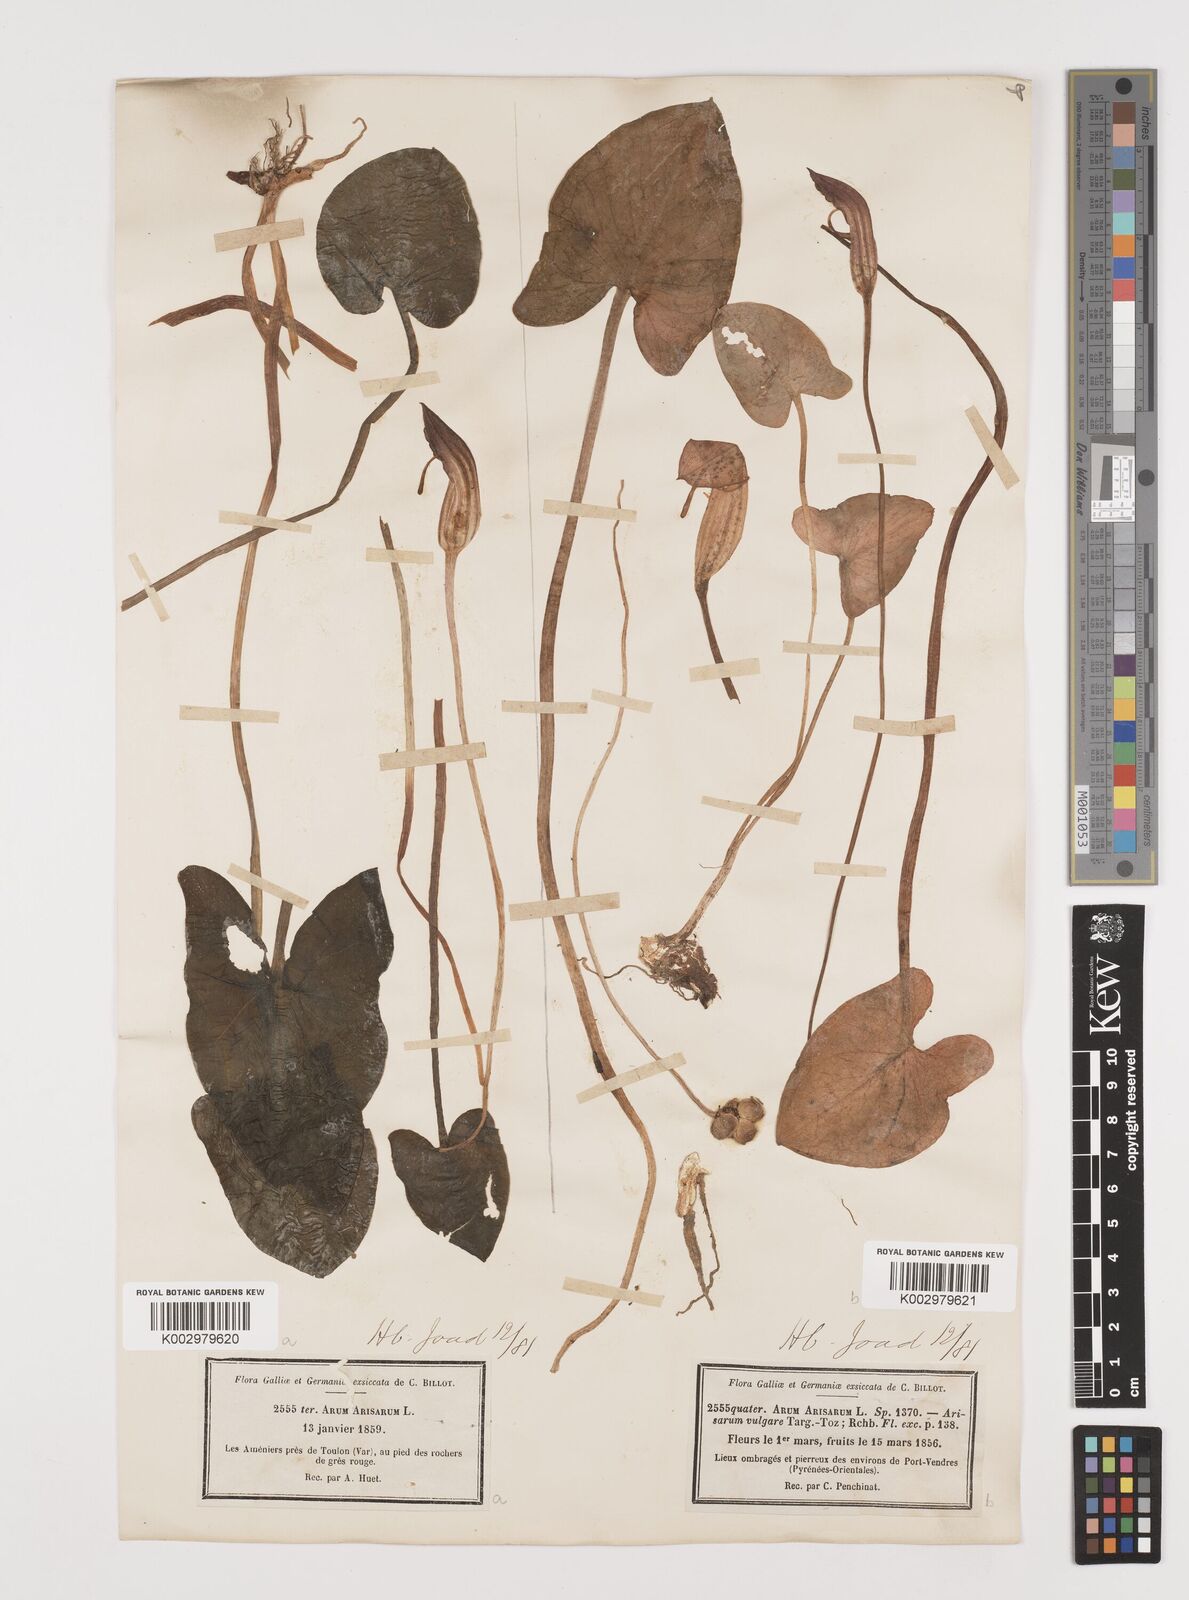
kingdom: Plantae
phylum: Tracheophyta
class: Liliopsida
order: Alismatales
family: Araceae
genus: Arisarum
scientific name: Arisarum vulgare
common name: Common arisarum
